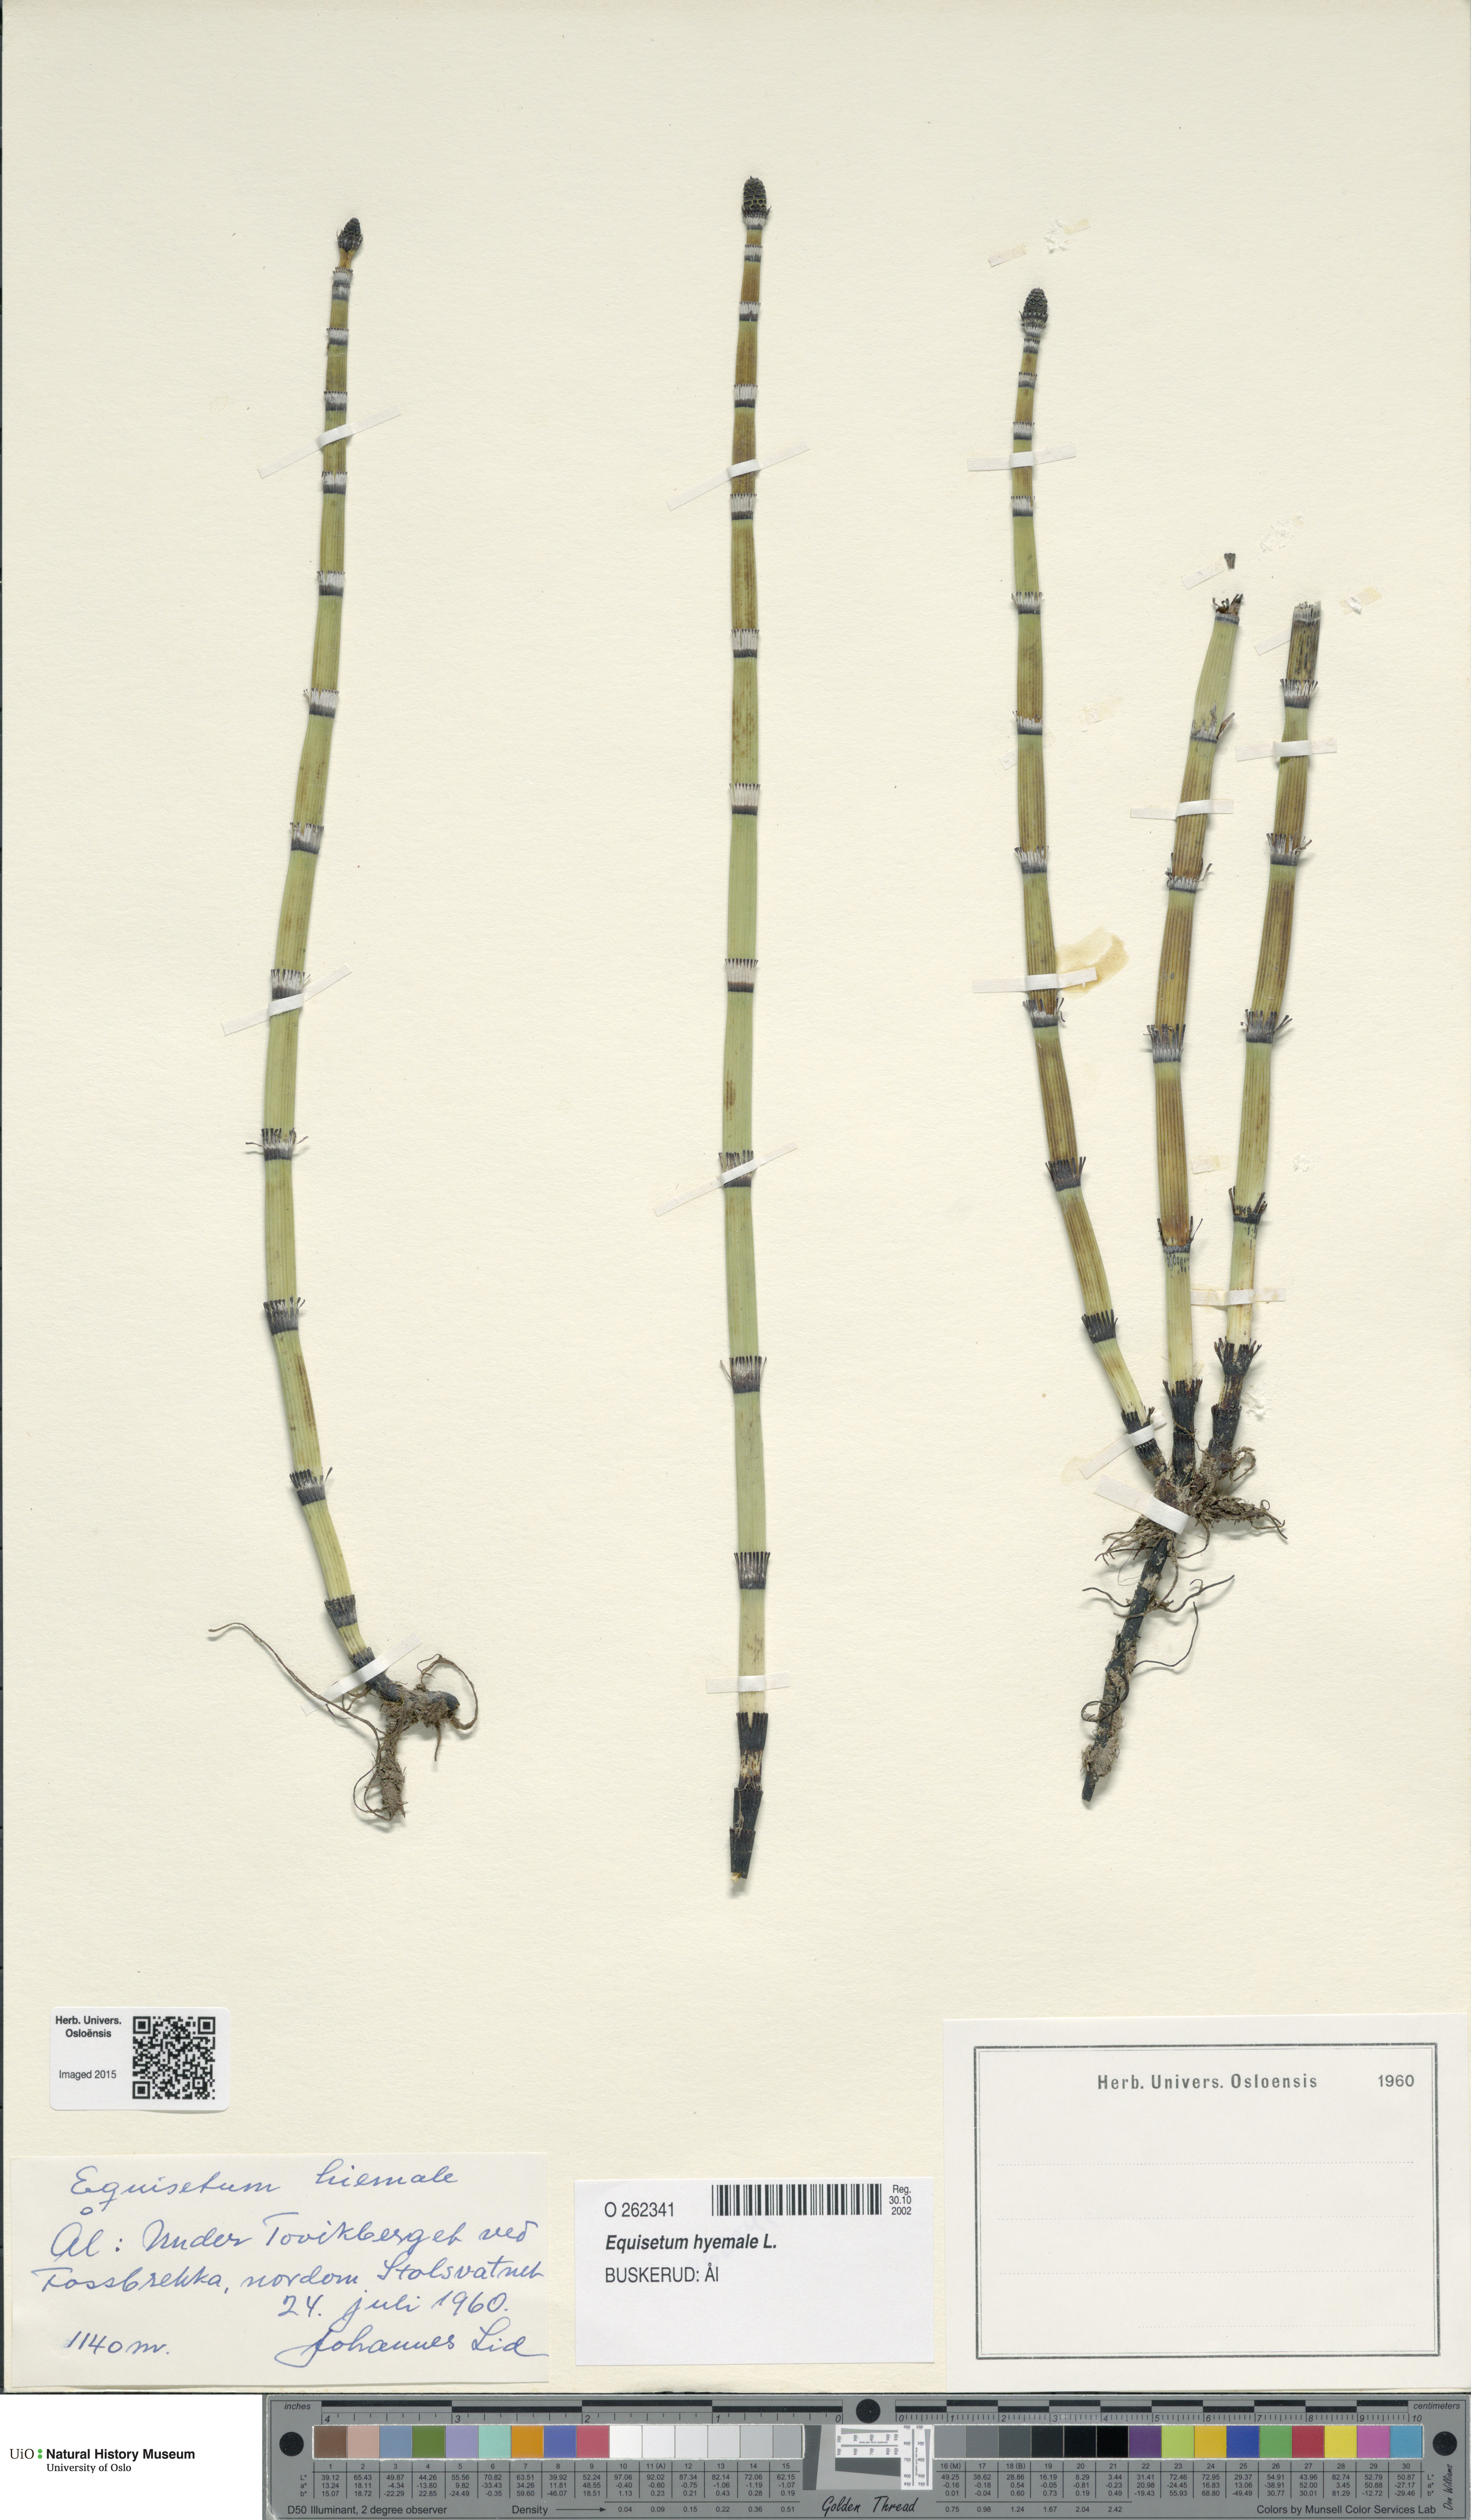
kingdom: Plantae
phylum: Tracheophyta
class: Polypodiopsida
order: Equisetales
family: Equisetaceae
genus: Equisetum
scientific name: Equisetum hyemale
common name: Rough horsetail
